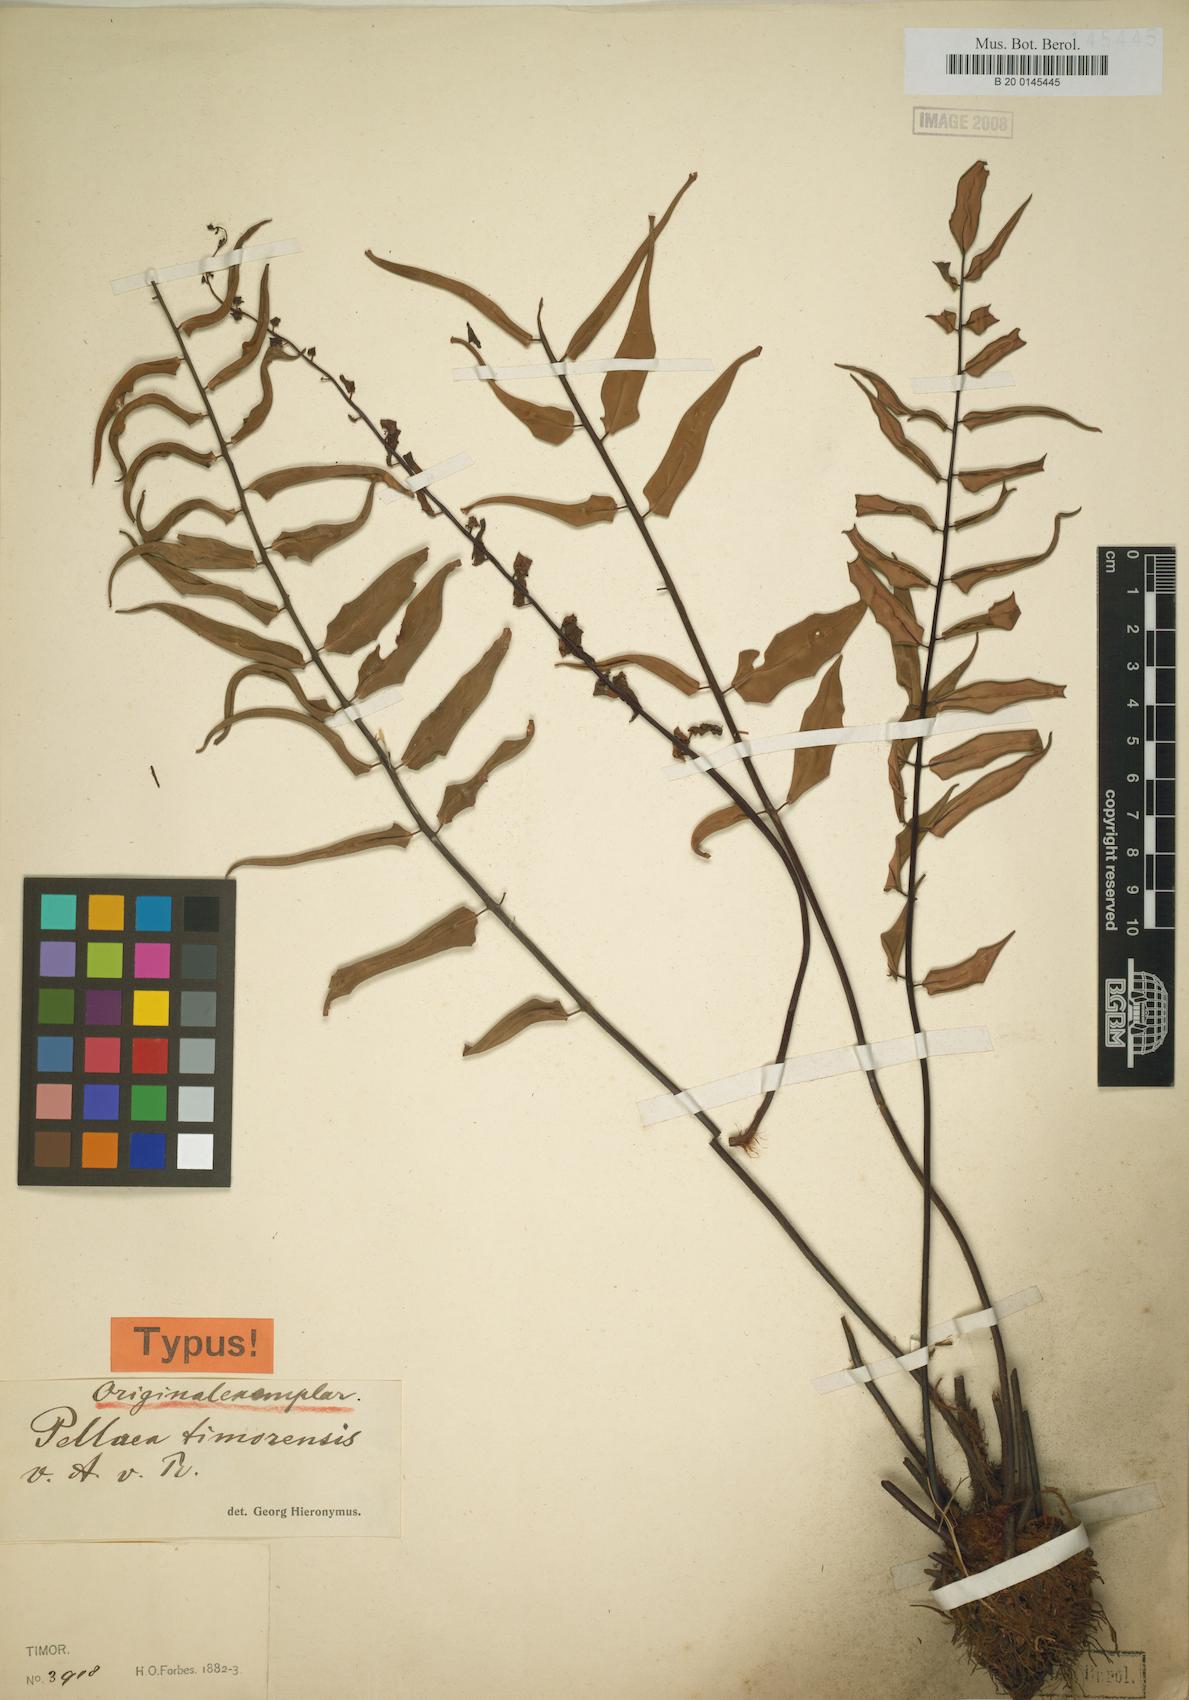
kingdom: Plantae
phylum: Tracheophyta
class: Polypodiopsida
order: Polypodiales
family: Pteridaceae
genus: Pellaea
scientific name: Pellaea timorensis
